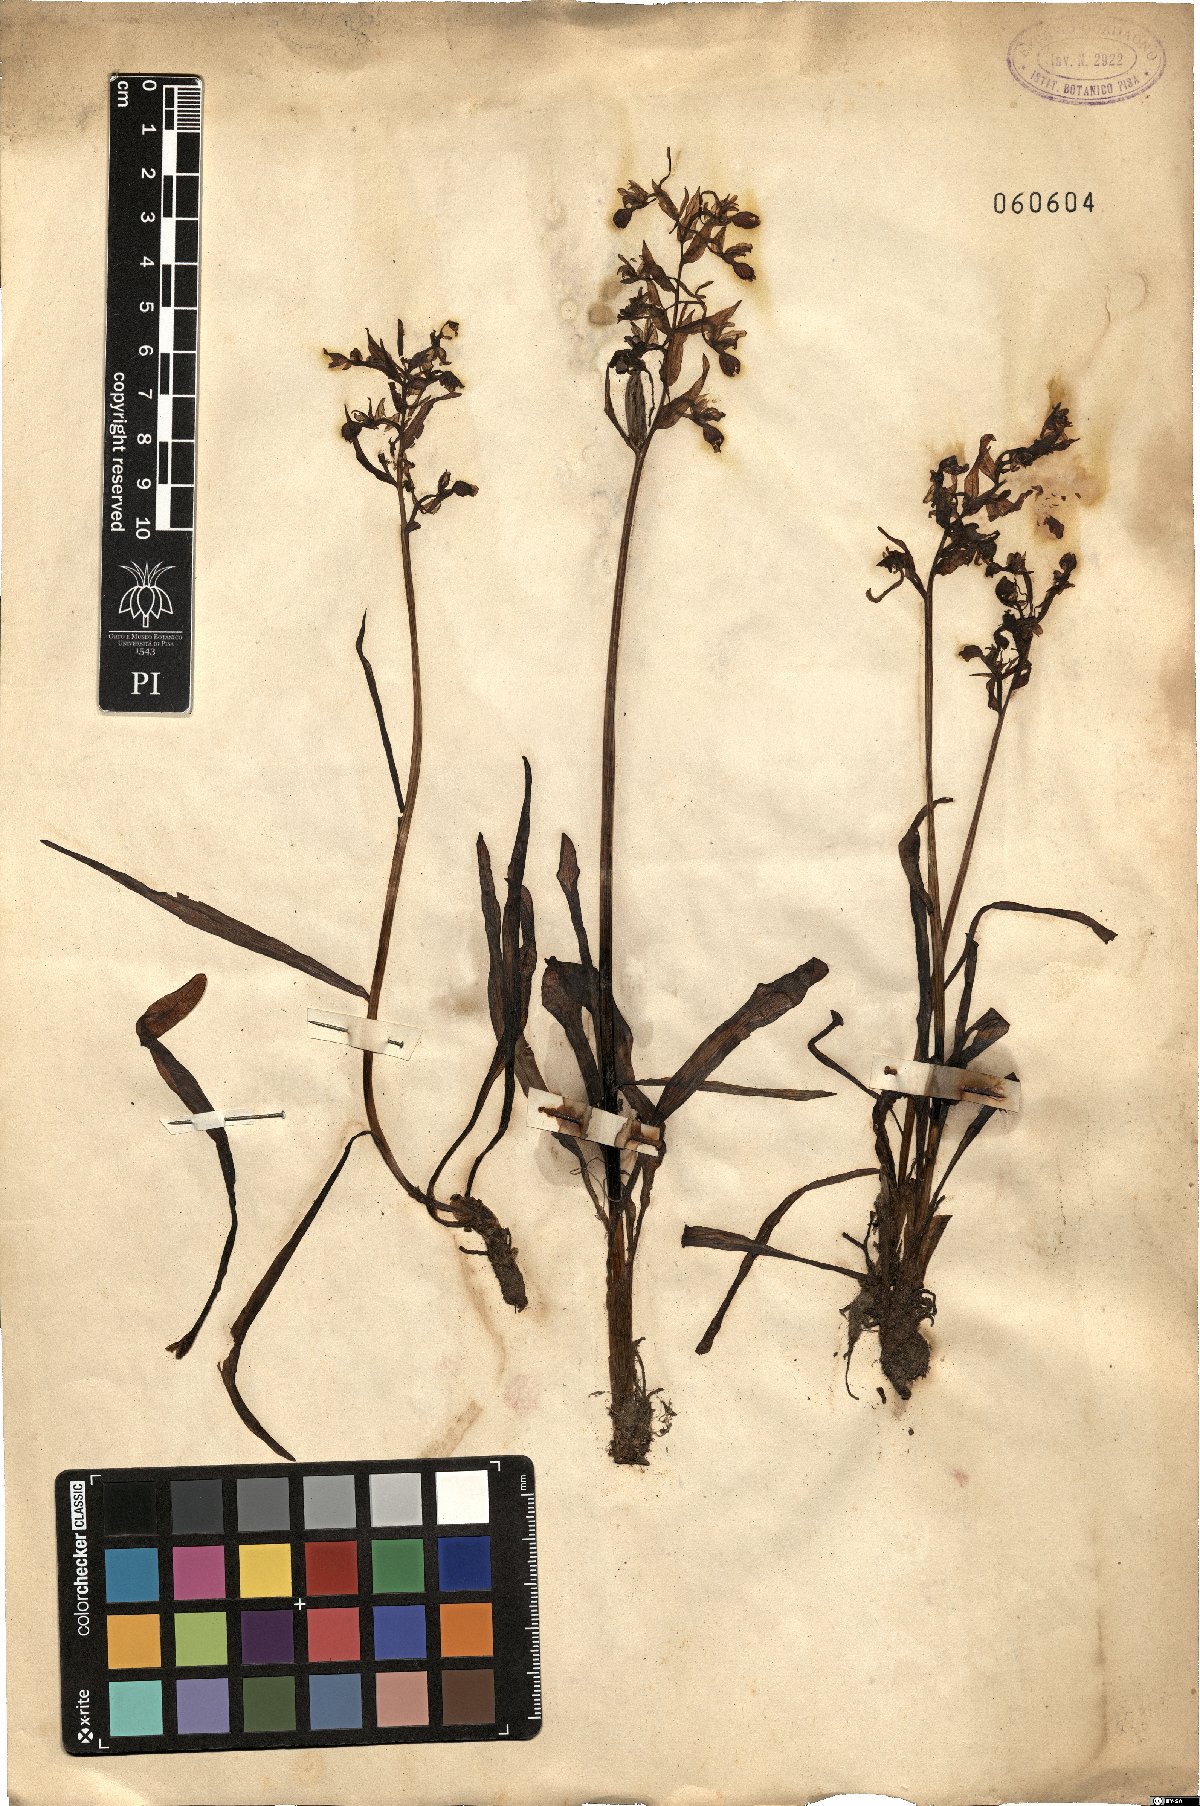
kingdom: Plantae
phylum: Tracheophyta
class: Liliopsida
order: Asparagales
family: Orchidaceae
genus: Orchis
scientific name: Orchis
